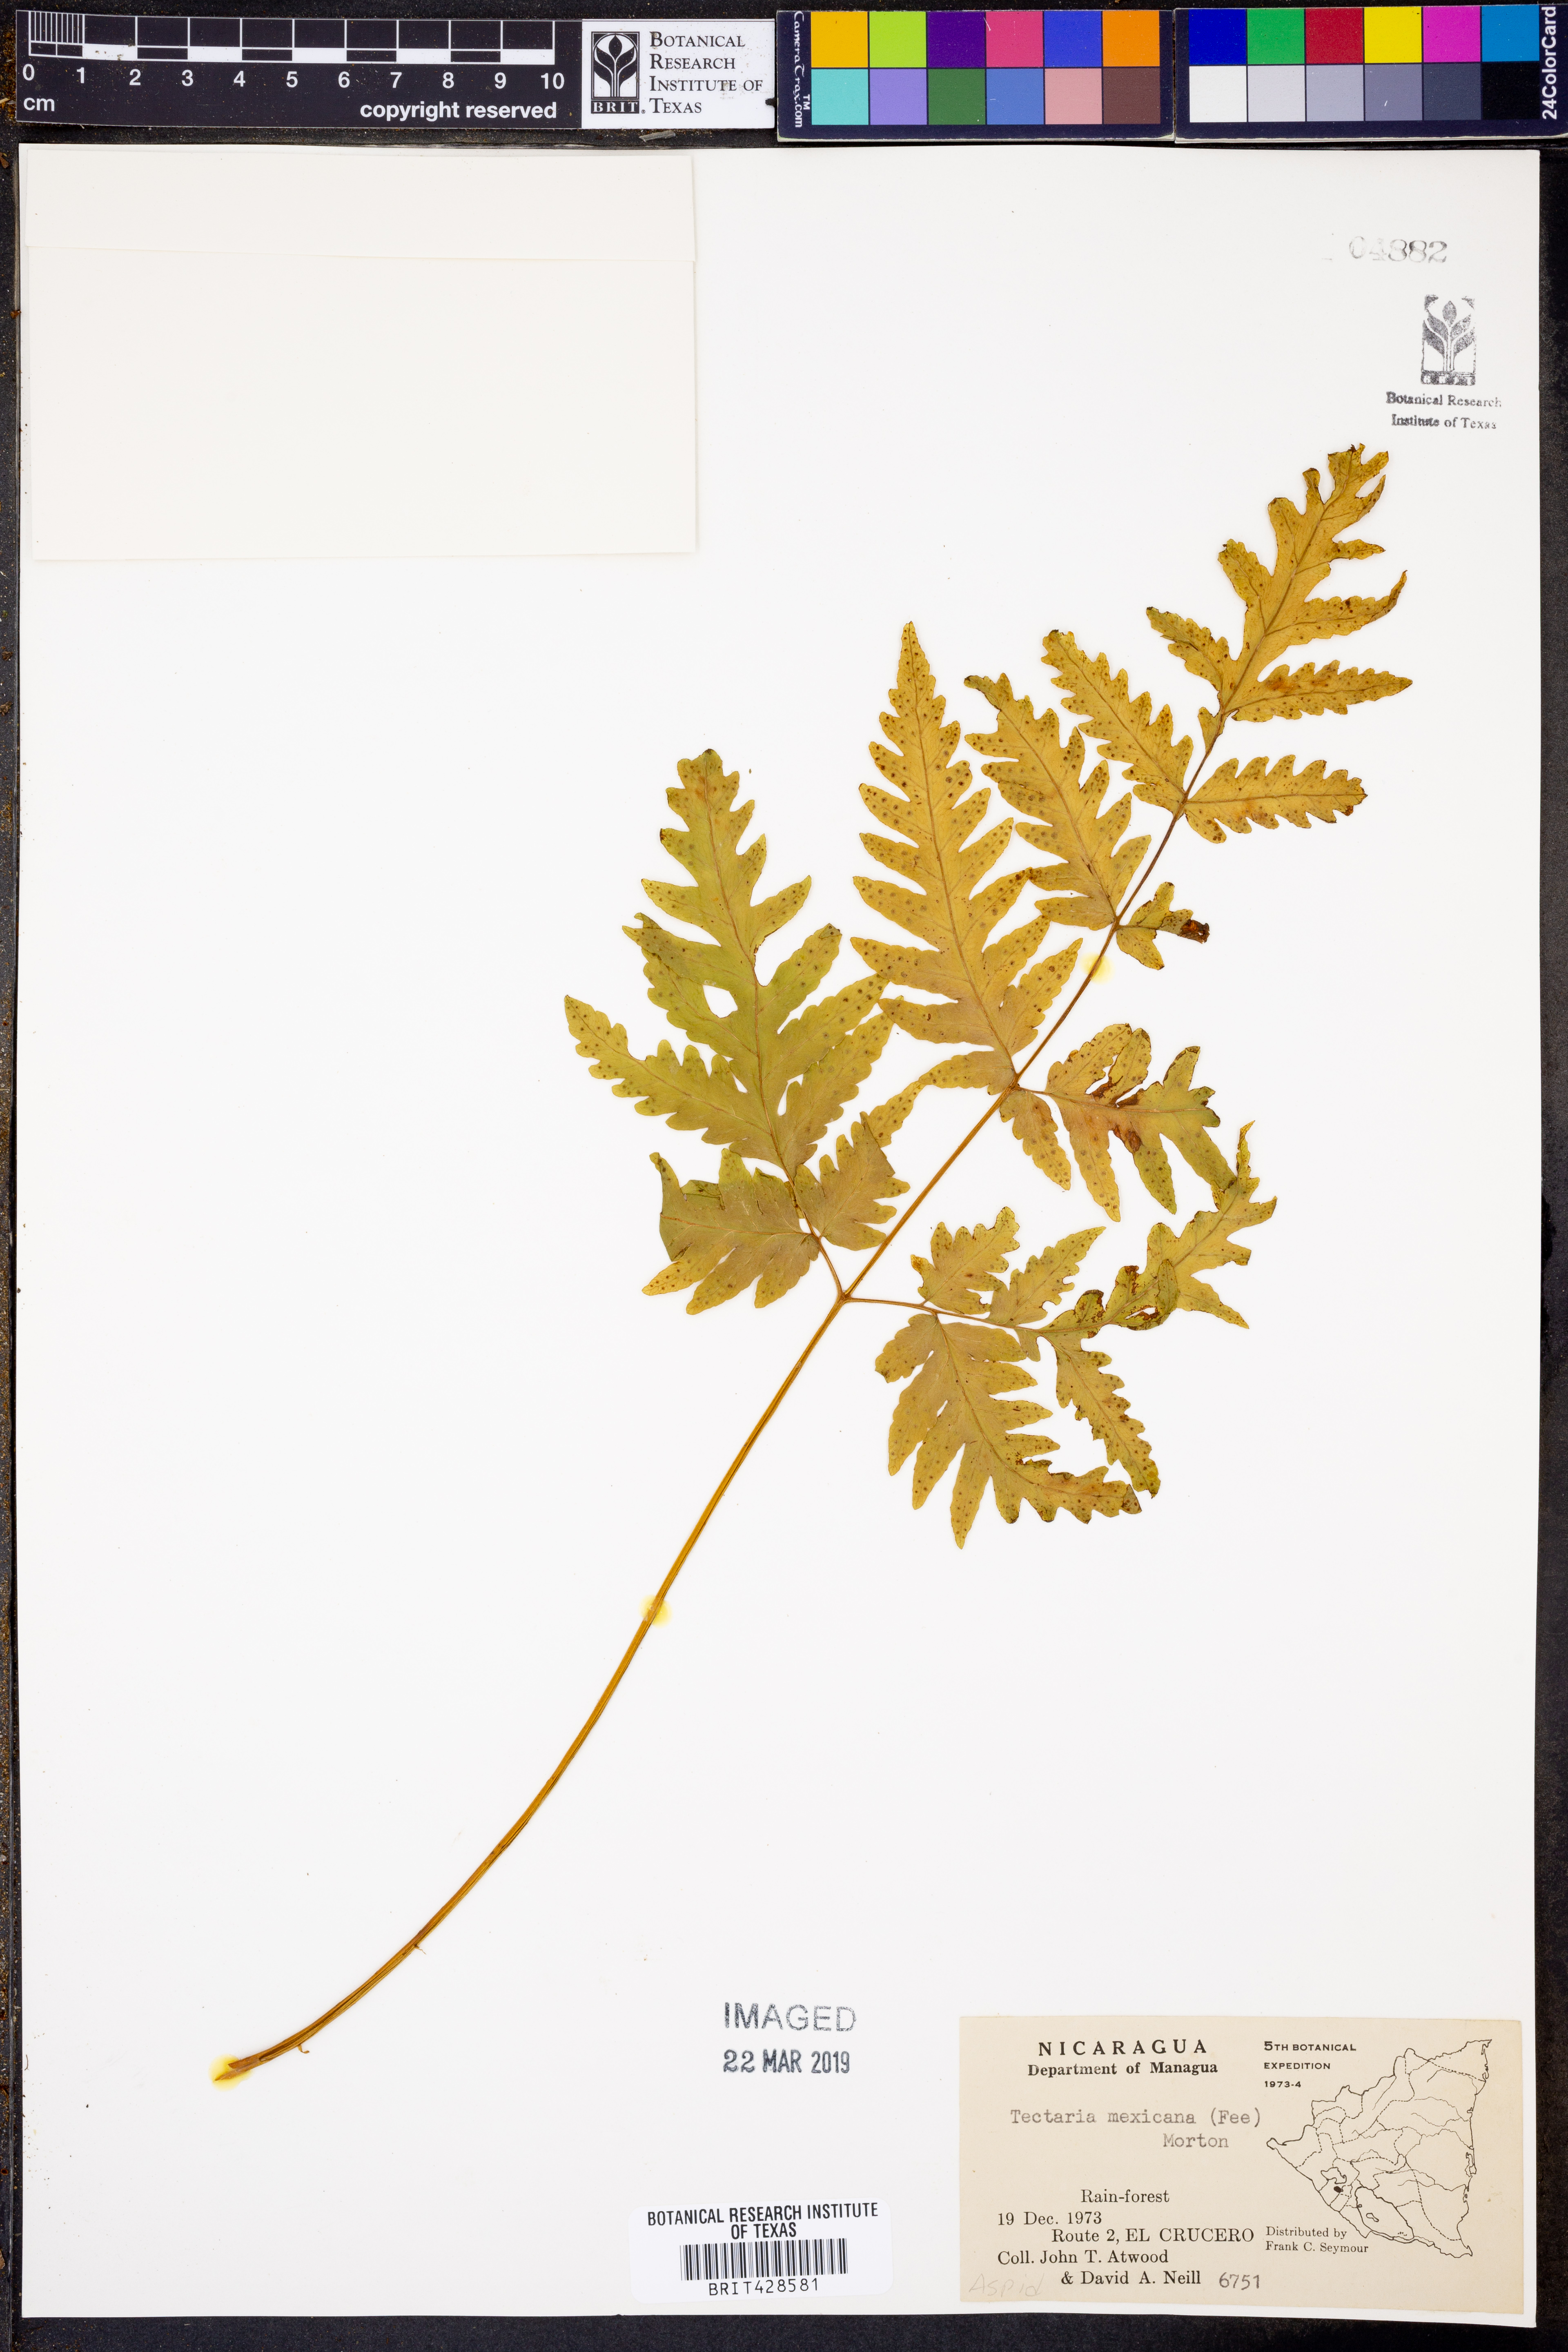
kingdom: Plantae
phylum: Tracheophyta
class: Polypodiopsida
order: Polypodiales
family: Tectariaceae
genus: Tectaria
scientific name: Tectaria mexicana
